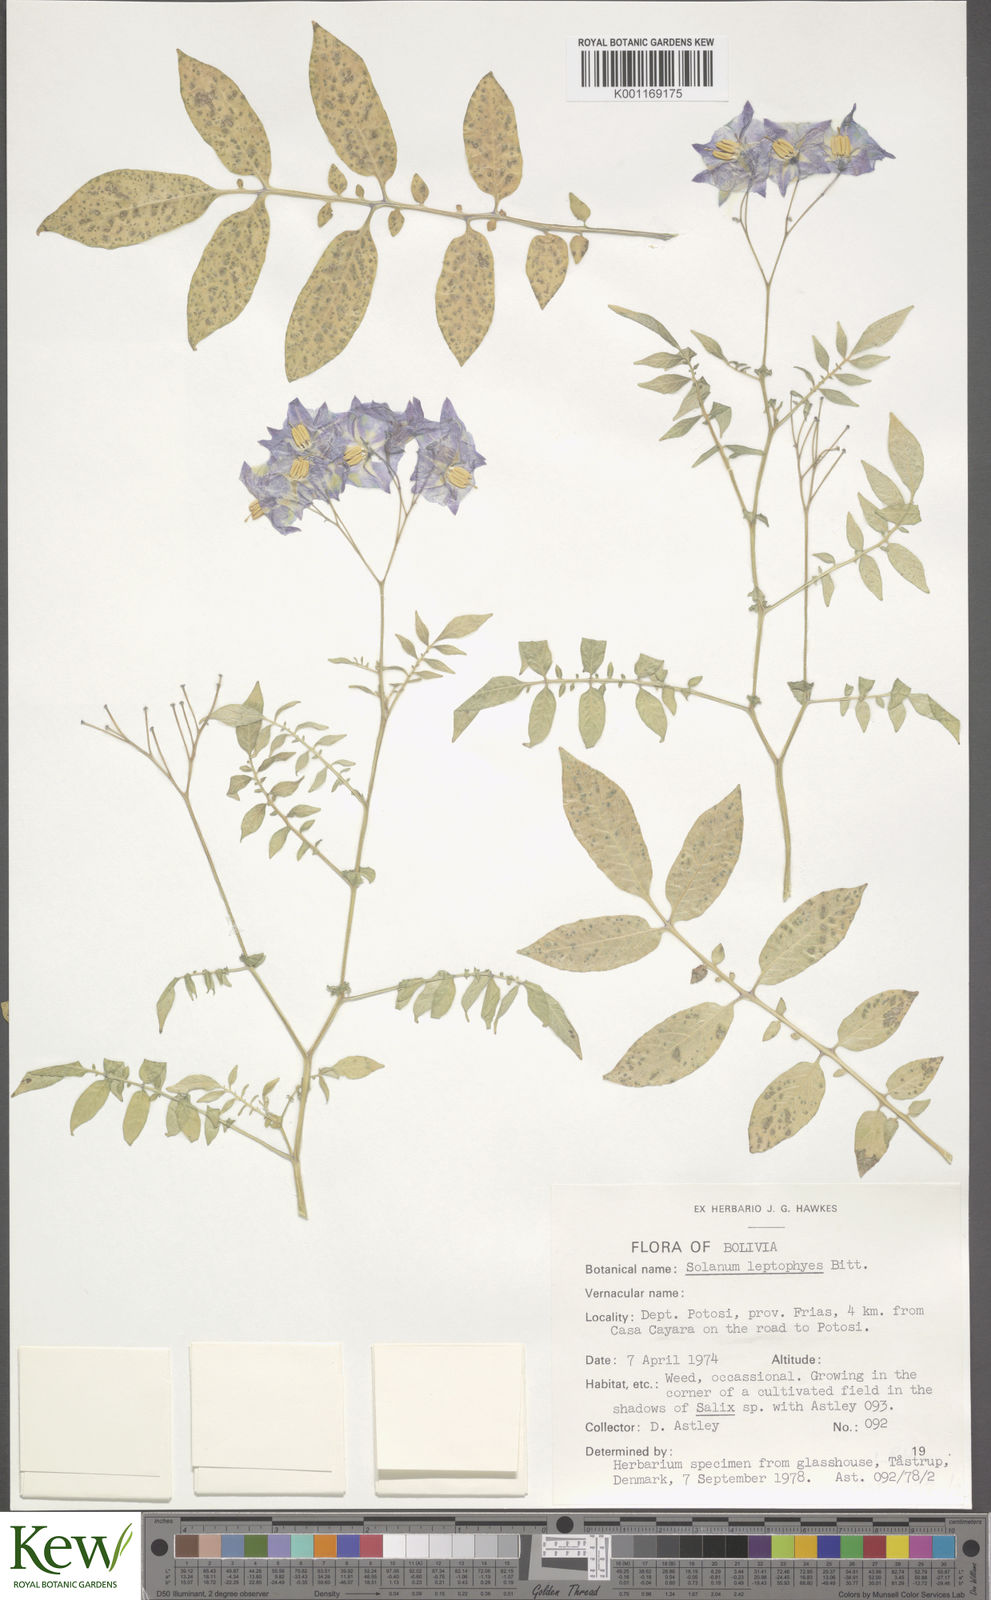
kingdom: Plantae
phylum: Tracheophyta
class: Magnoliopsida
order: Solanales
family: Solanaceae
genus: Solanum
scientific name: Solanum brevicaule
